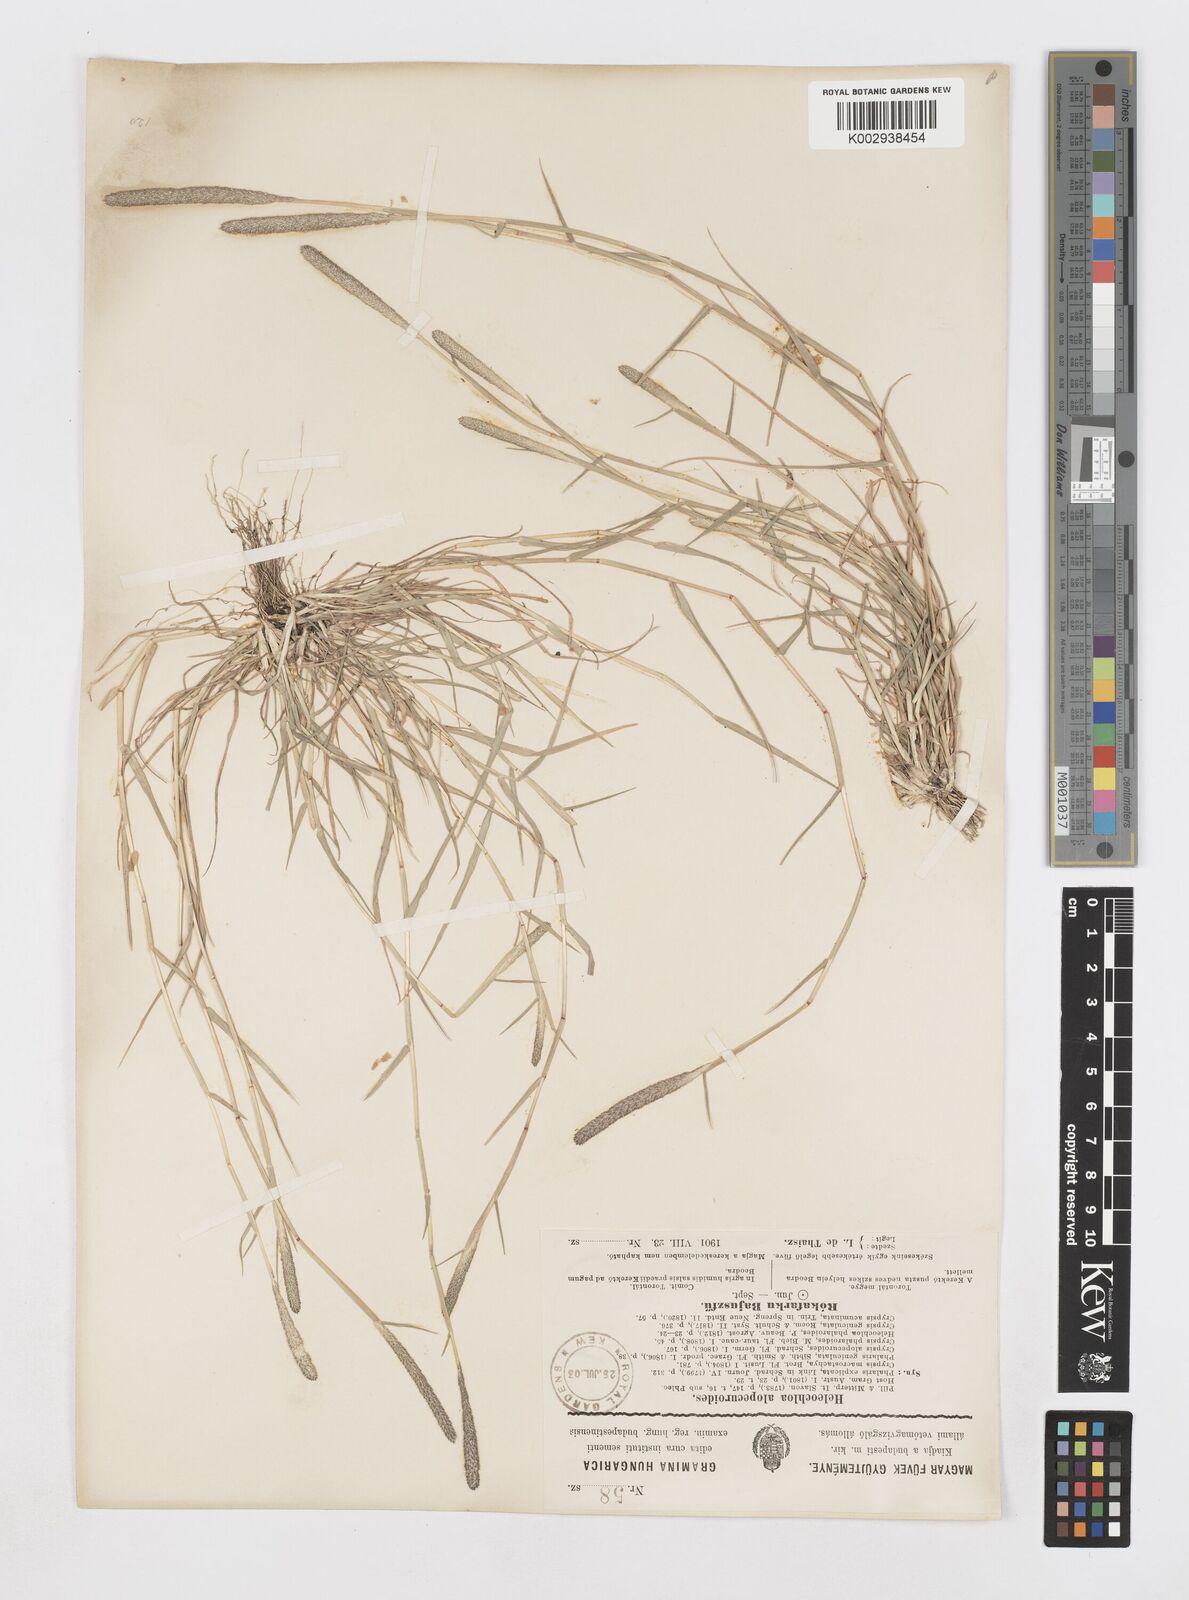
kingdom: Plantae
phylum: Tracheophyta
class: Liliopsida
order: Poales
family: Poaceae
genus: Sporobolus
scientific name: Sporobolus alopecuroides
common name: Foxtail pricklegrass
